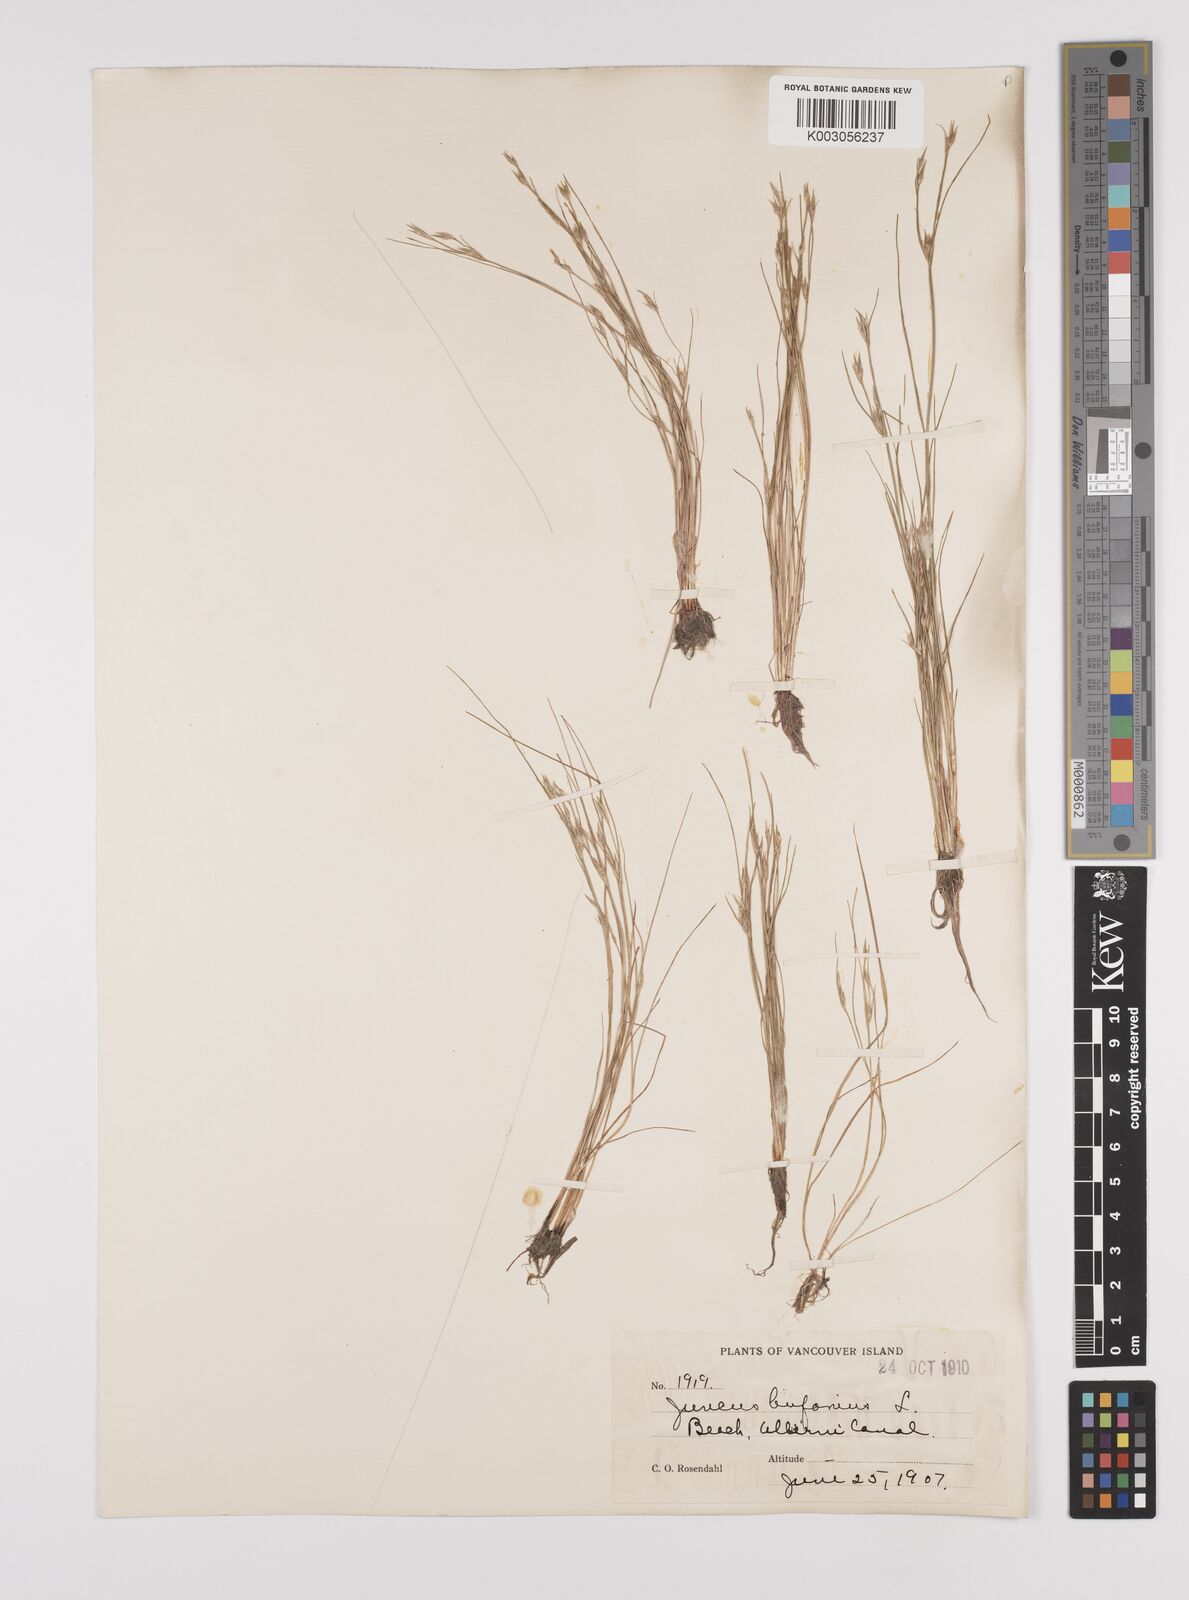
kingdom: Plantae
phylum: Tracheophyta
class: Liliopsida
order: Poales
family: Juncaceae
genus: Juncus
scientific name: Juncus bufonius
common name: Toad rush
